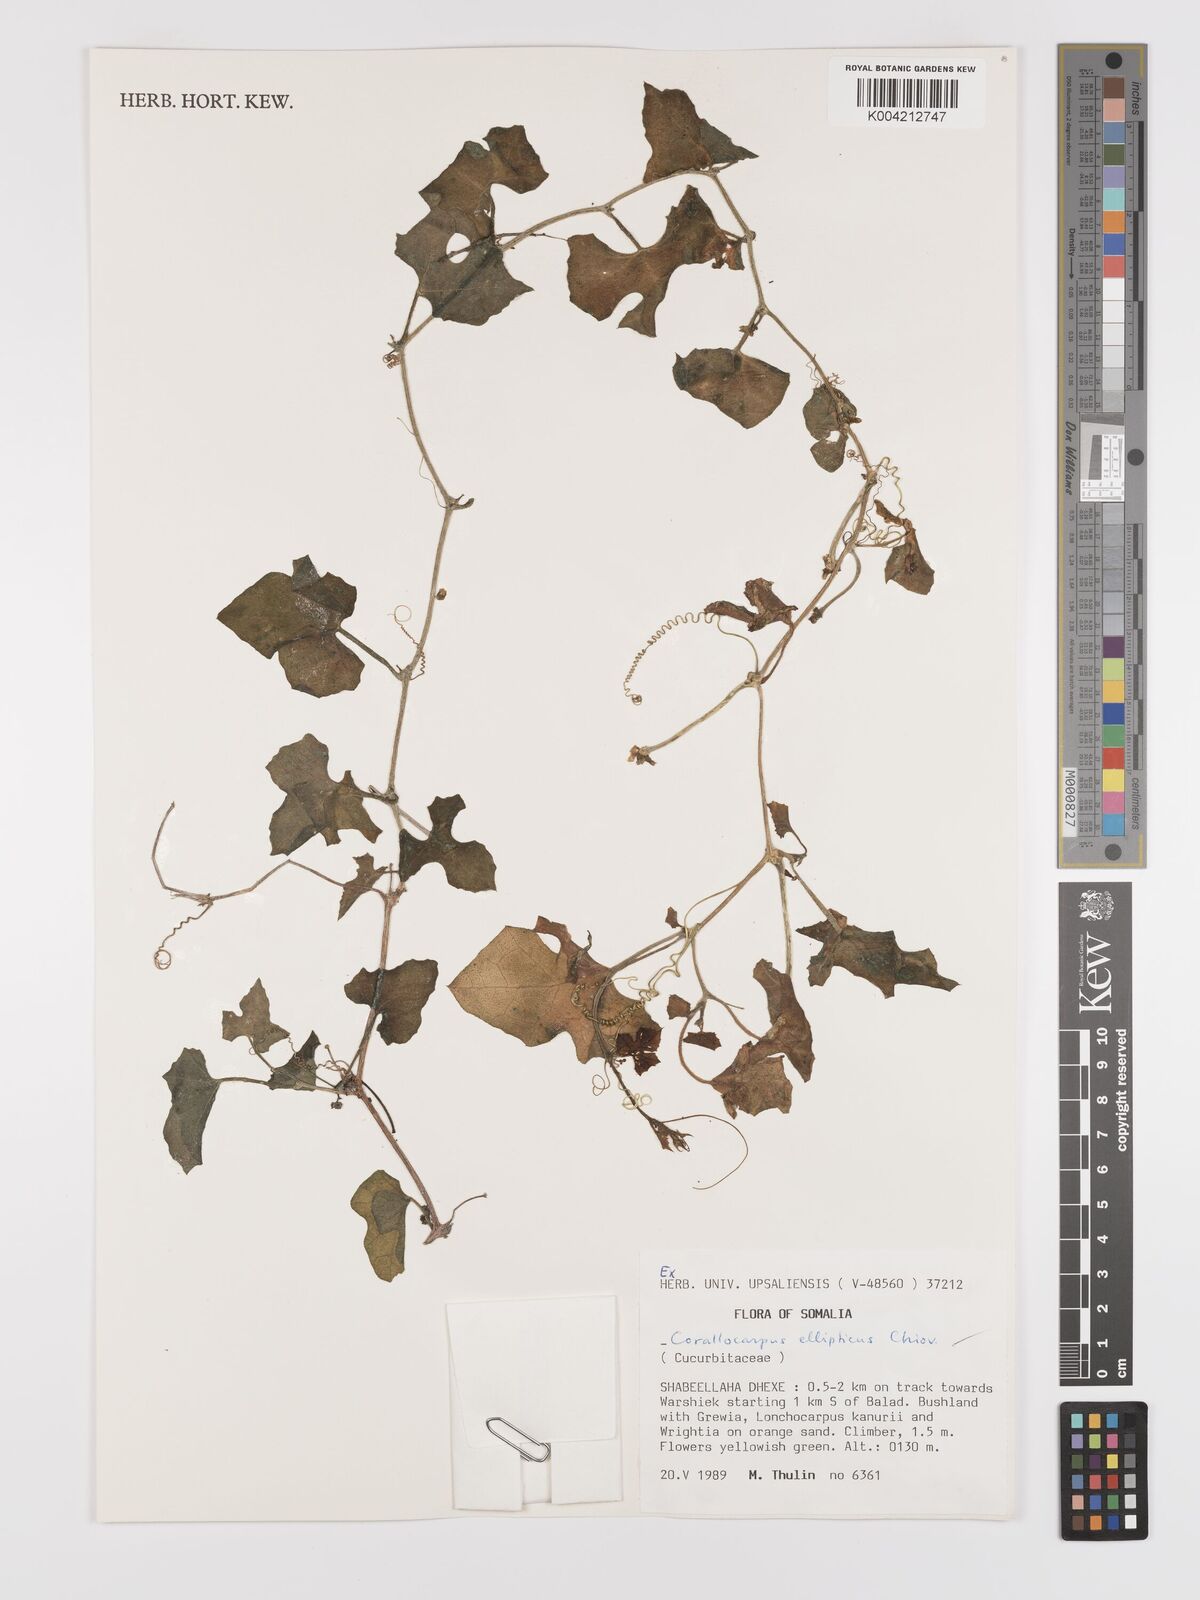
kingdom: Plantae
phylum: Tracheophyta
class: Magnoliopsida
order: Cucurbitales
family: Cucurbitaceae
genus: Corallocarpus
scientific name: Corallocarpus ellipticus
